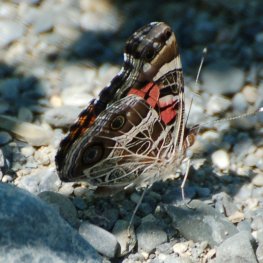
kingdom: Animalia
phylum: Arthropoda
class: Insecta
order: Lepidoptera
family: Nymphalidae
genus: Vanessa
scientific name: Vanessa virginiensis
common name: American Lady
